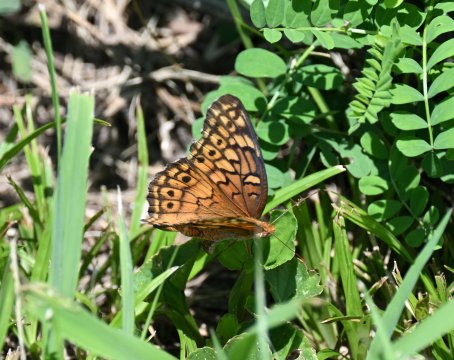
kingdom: Animalia
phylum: Arthropoda
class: Insecta
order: Lepidoptera
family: Nymphalidae
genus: Euptoieta
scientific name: Euptoieta claudia
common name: Variegated Fritillary
